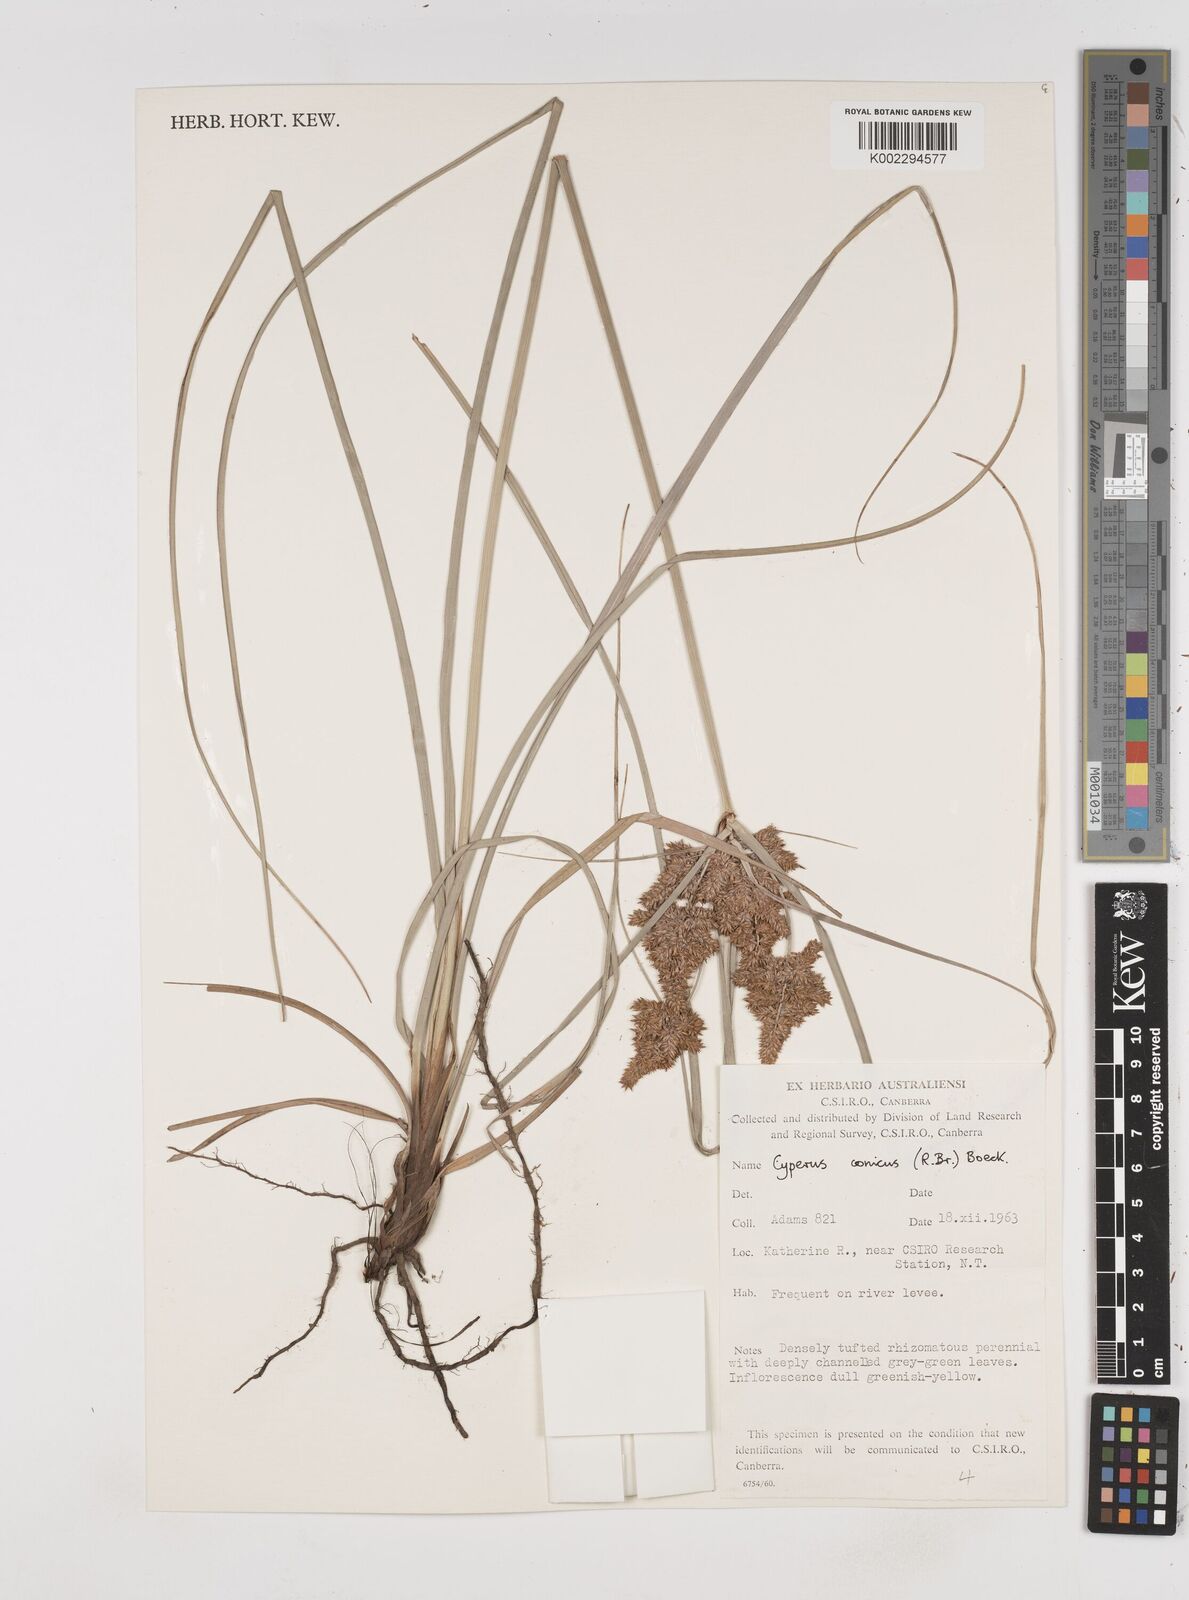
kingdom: Plantae
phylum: Tracheophyta
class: Liliopsida
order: Poales
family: Cyperaceae
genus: Cyperus
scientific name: Cyperus conicus
